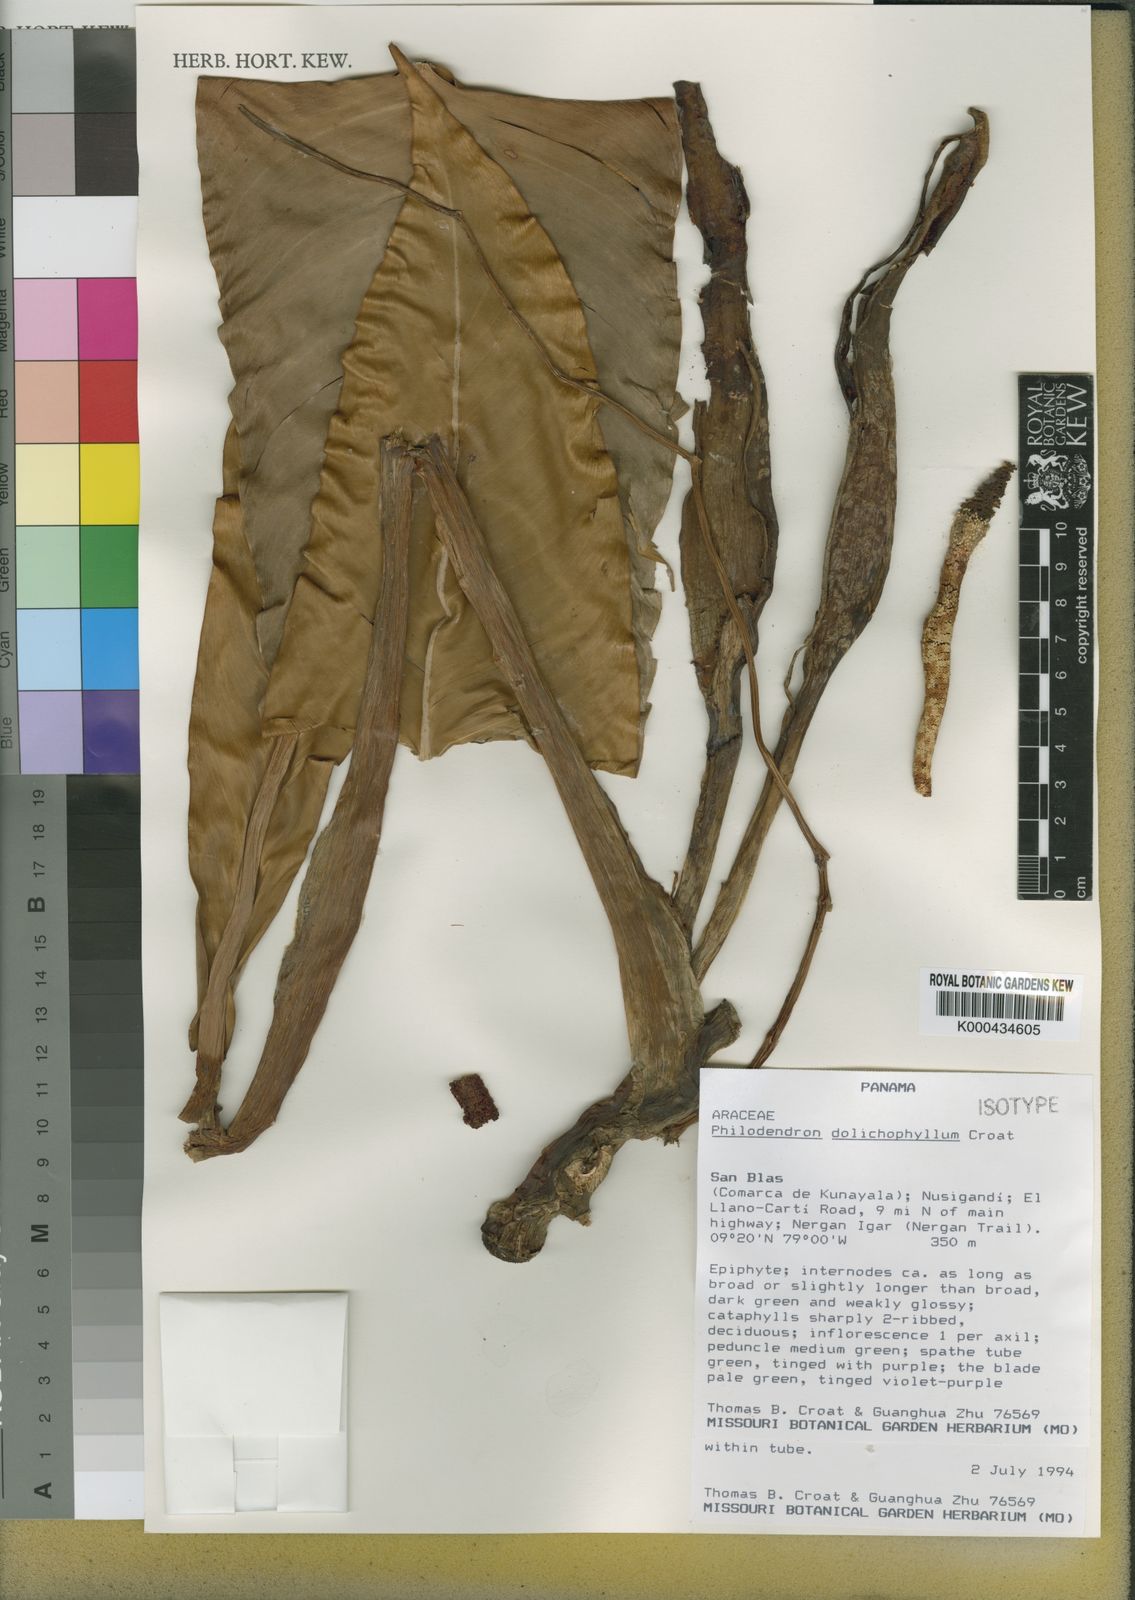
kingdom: Plantae
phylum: Tracheophyta
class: Liliopsida
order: Alismatales
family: Araceae
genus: Philodendron
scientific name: Philodendron dolichophyllum
